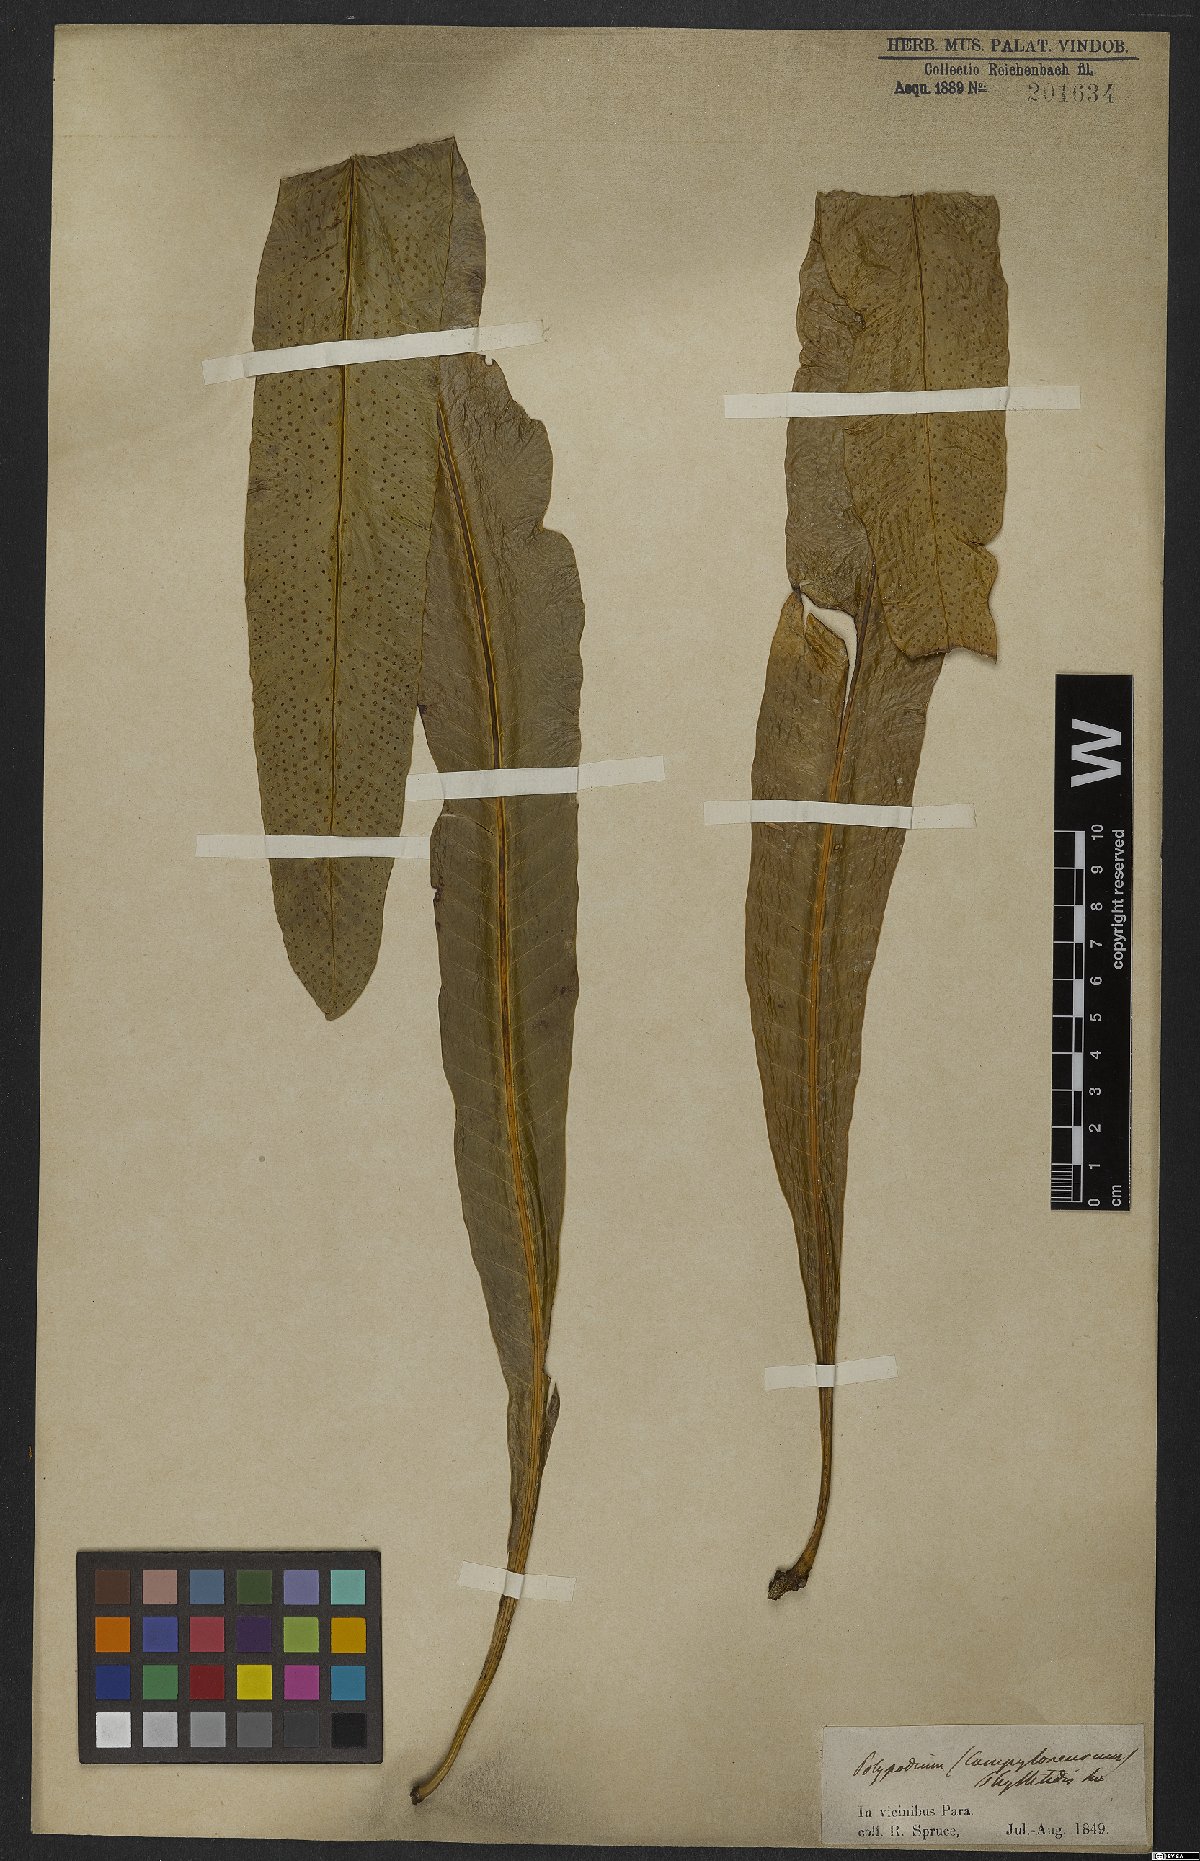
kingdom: Plantae
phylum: Tracheophyta
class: Polypodiopsida
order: Polypodiales
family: Polypodiaceae
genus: Campyloneurum
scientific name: Campyloneurum phyllitidis
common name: Cow-tongue fern
